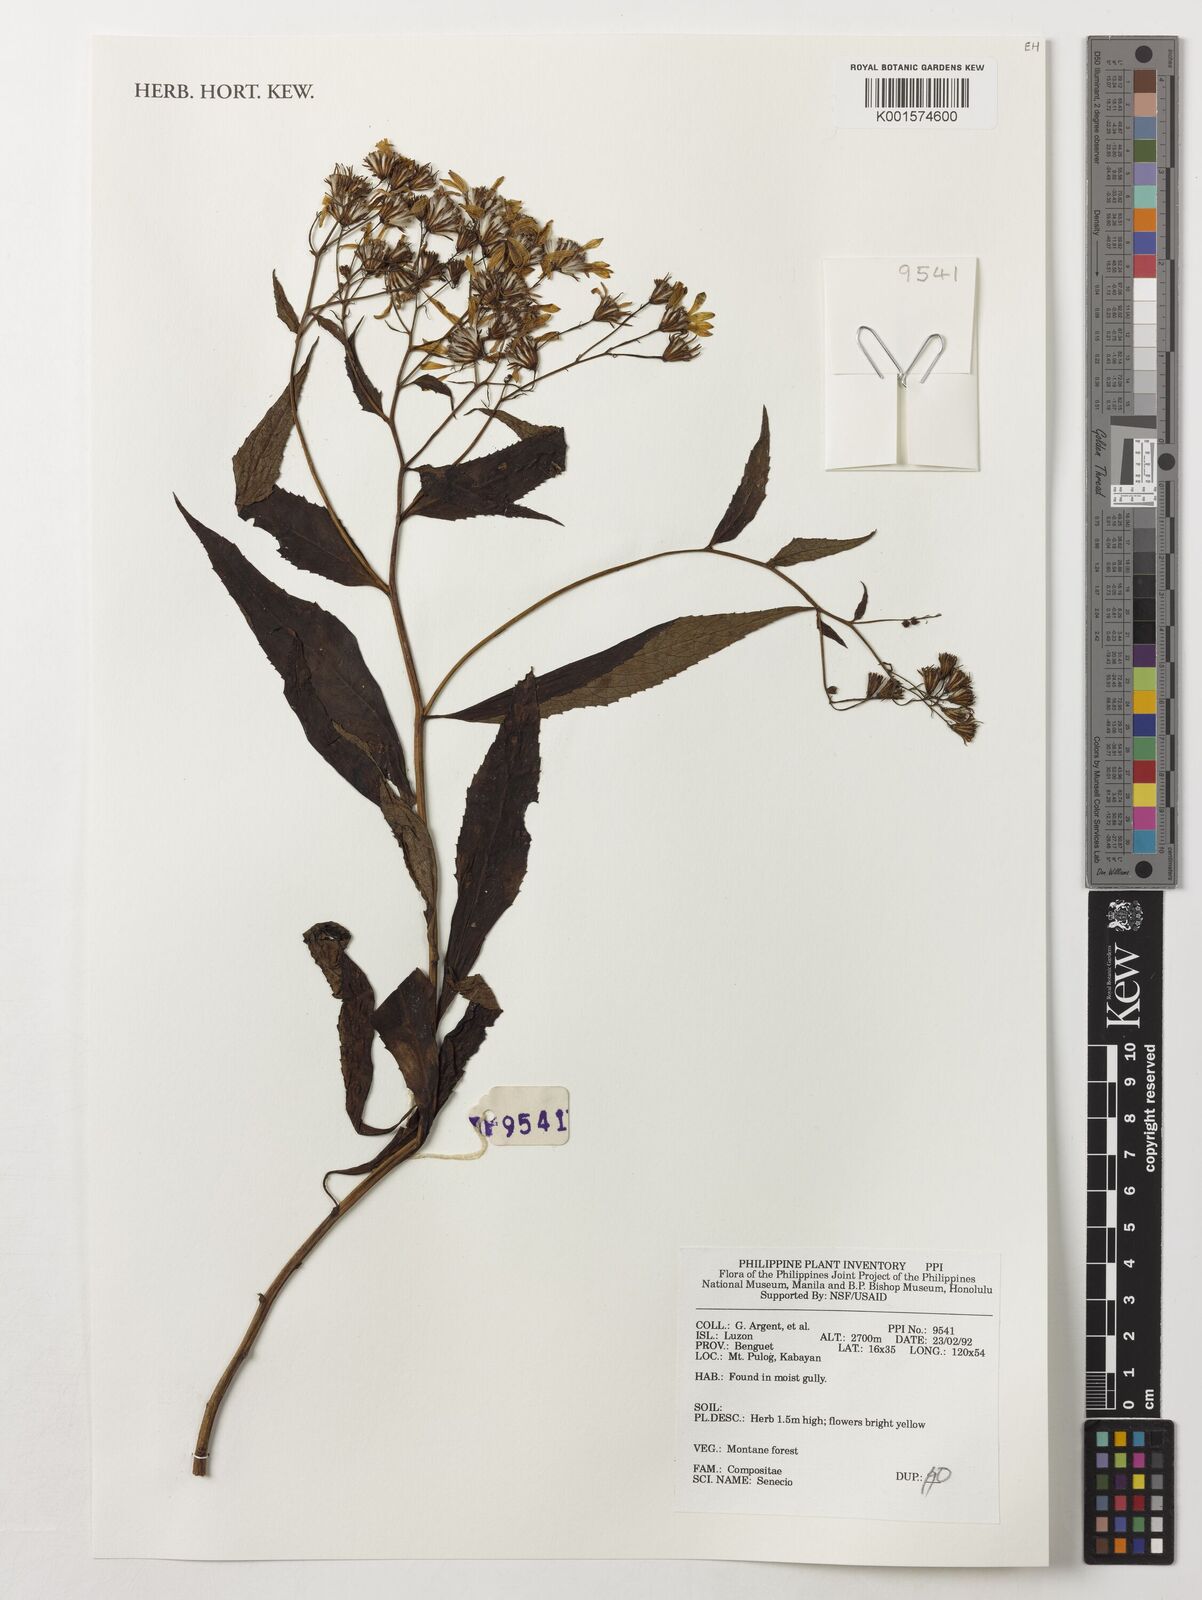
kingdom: Plantae
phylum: Tracheophyta
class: Magnoliopsida
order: Asterales
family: Asteraceae
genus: Senecio
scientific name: Senecio
